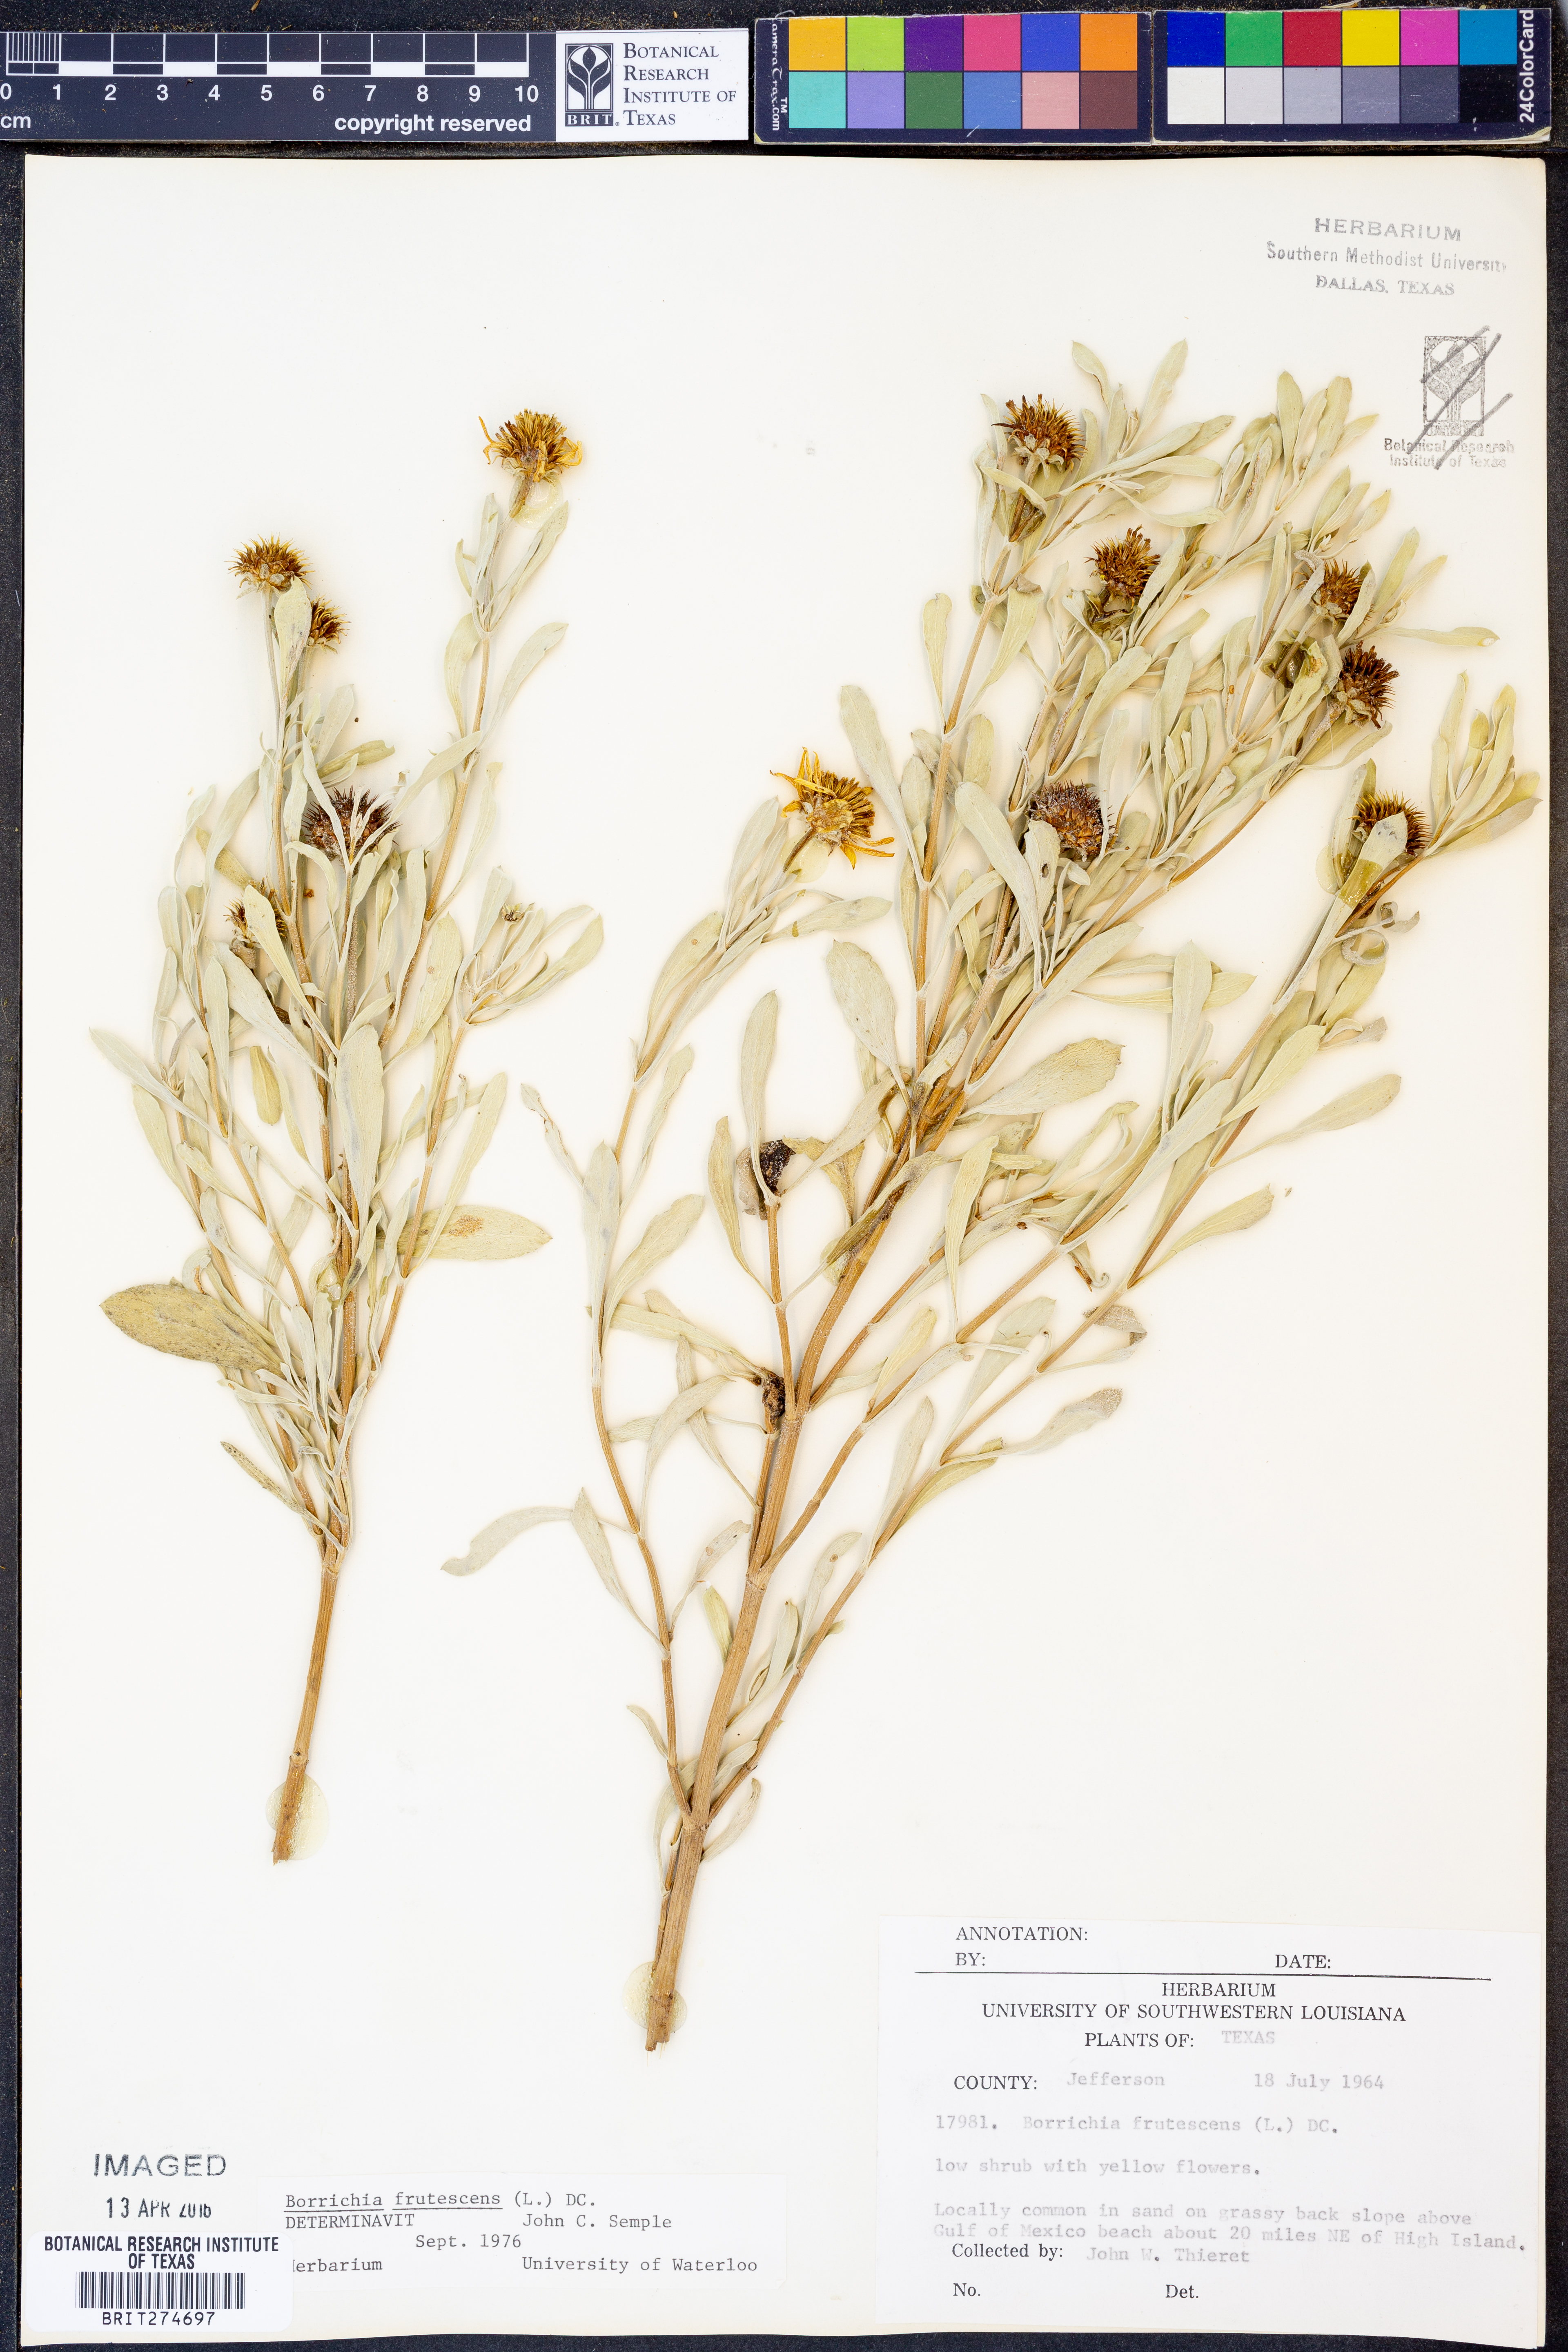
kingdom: Plantae
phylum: Tracheophyta
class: Magnoliopsida
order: Asterales
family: Asteraceae
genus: Borrichia
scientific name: Borrichia frutescens
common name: Sea oxeye
